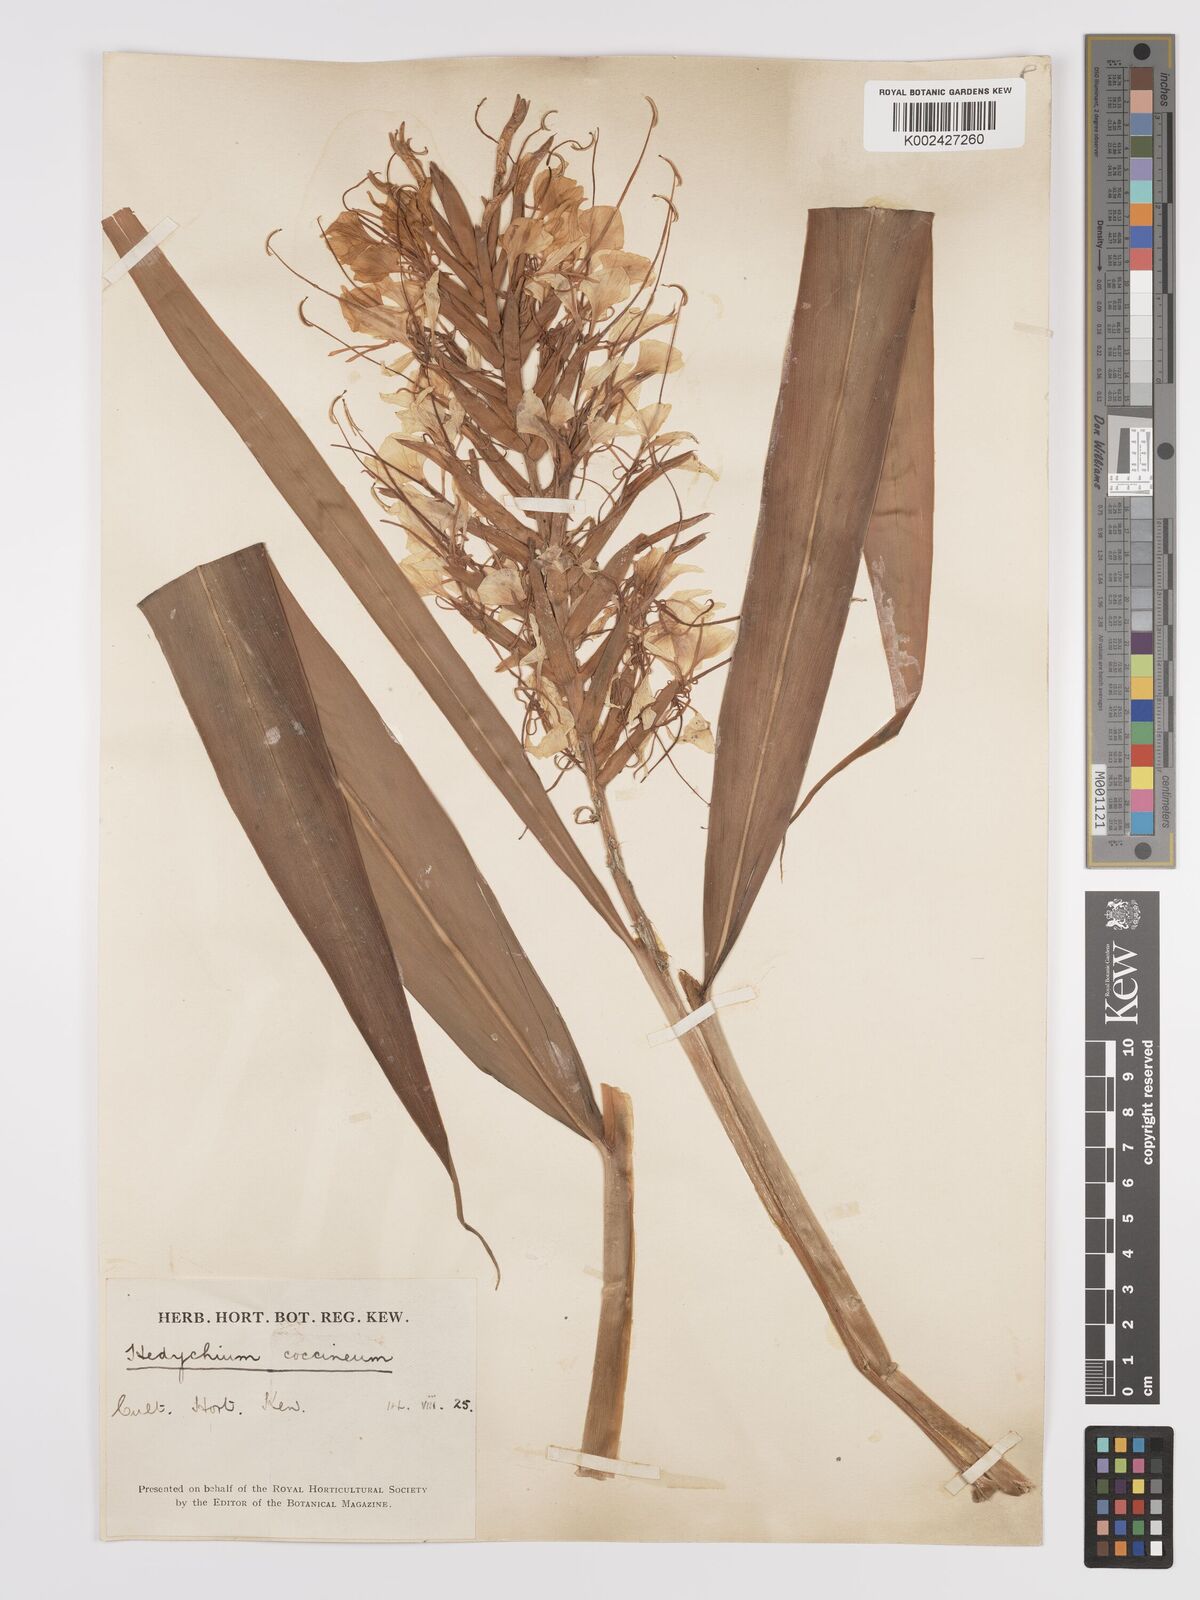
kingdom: Plantae
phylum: Tracheophyta
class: Liliopsida
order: Zingiberales
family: Zingiberaceae
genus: Hedychium
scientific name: Hedychium coccineum
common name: Red ginger-lily
